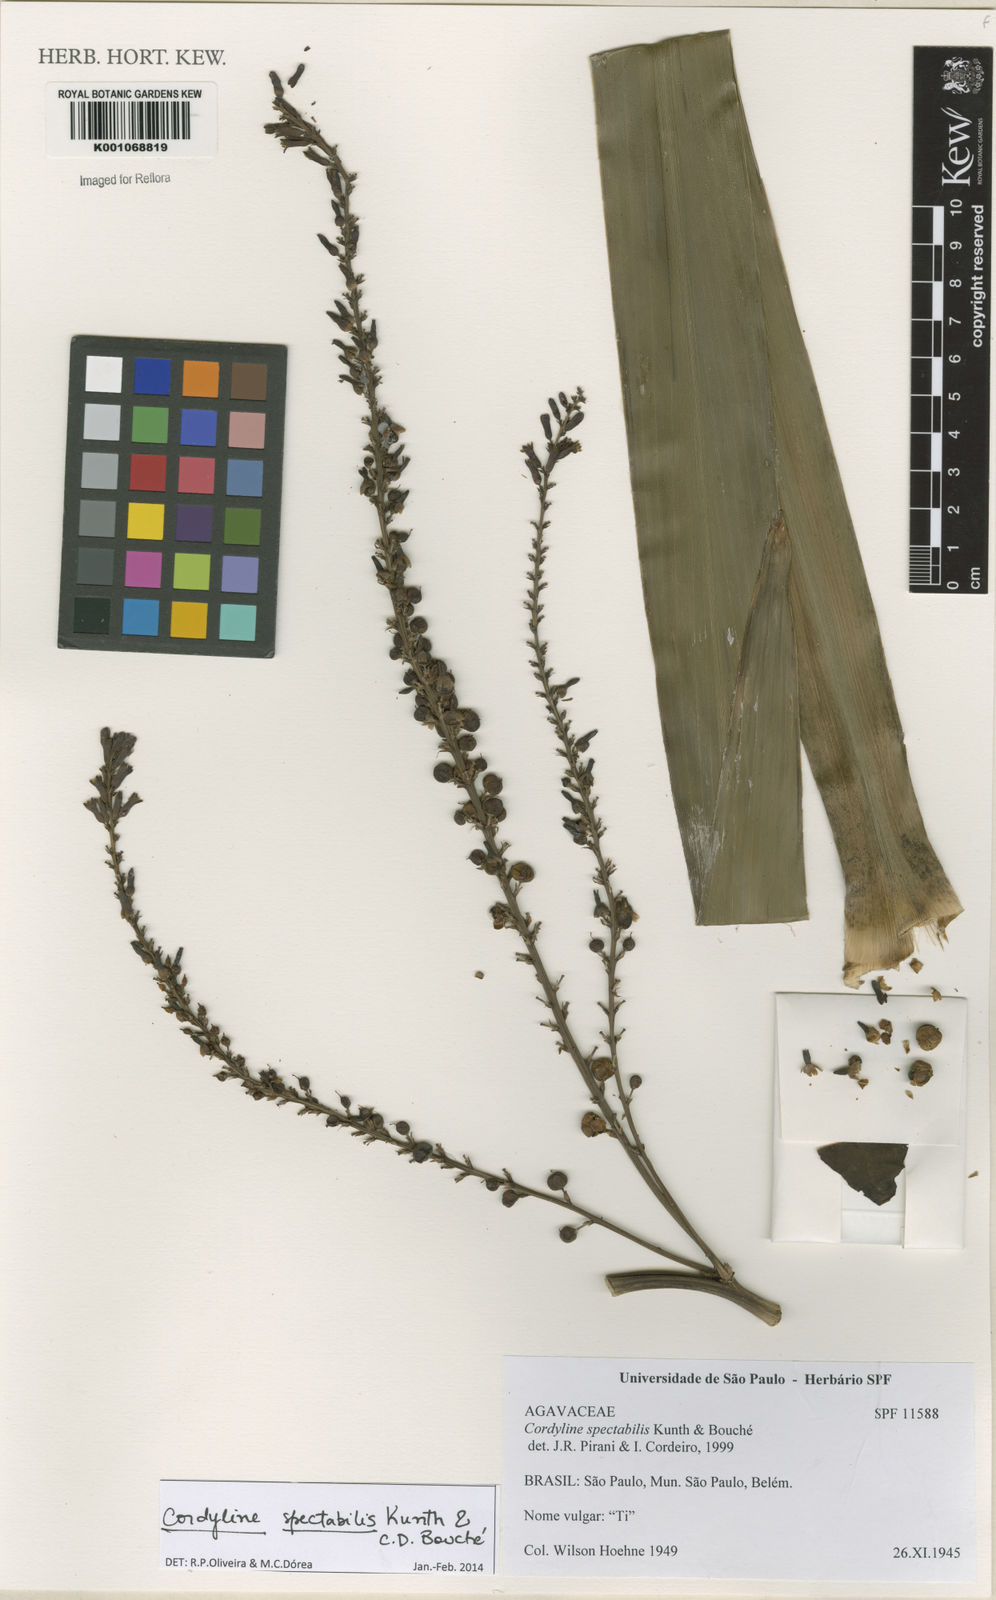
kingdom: Plantae
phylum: Tracheophyta
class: Liliopsida
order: Asparagales
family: Asparagaceae
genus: Cordyline
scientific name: Cordyline
